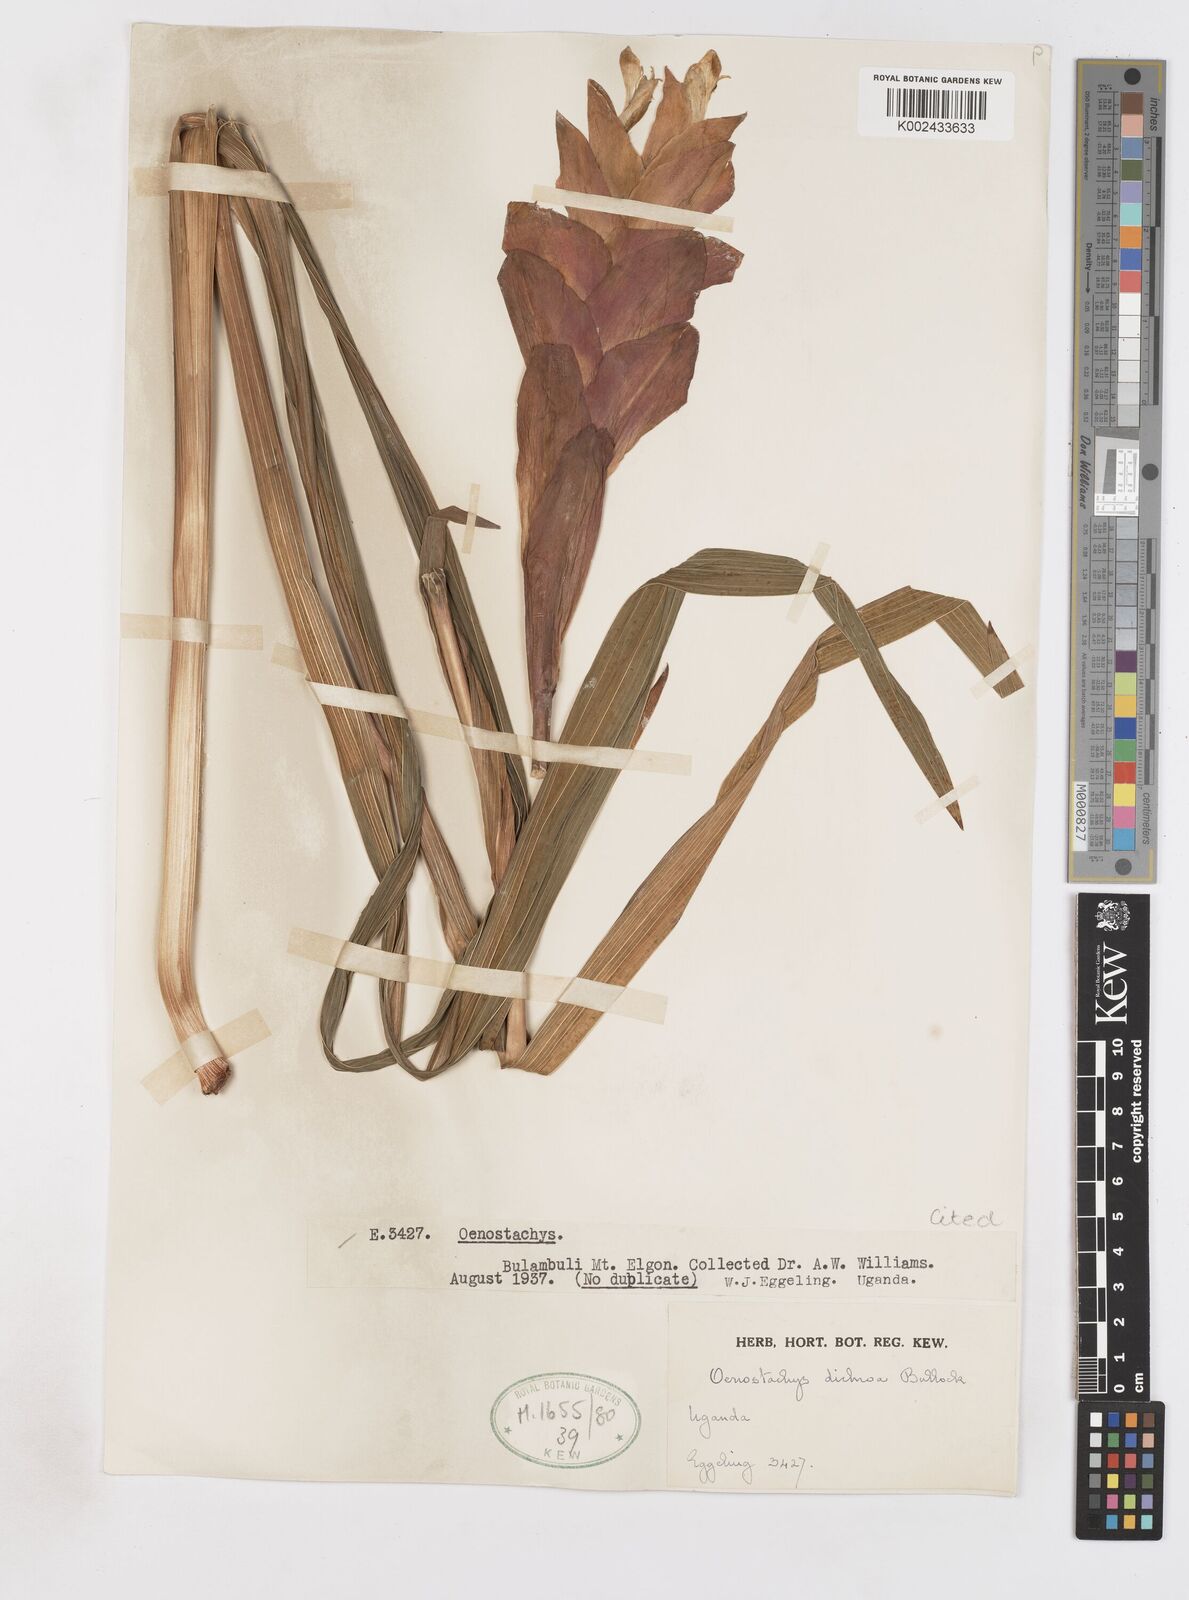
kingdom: Plantae
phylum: Tracheophyta
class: Liliopsida
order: Asparagales
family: Iridaceae
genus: Gladiolus
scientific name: Gladiolus dichrous
